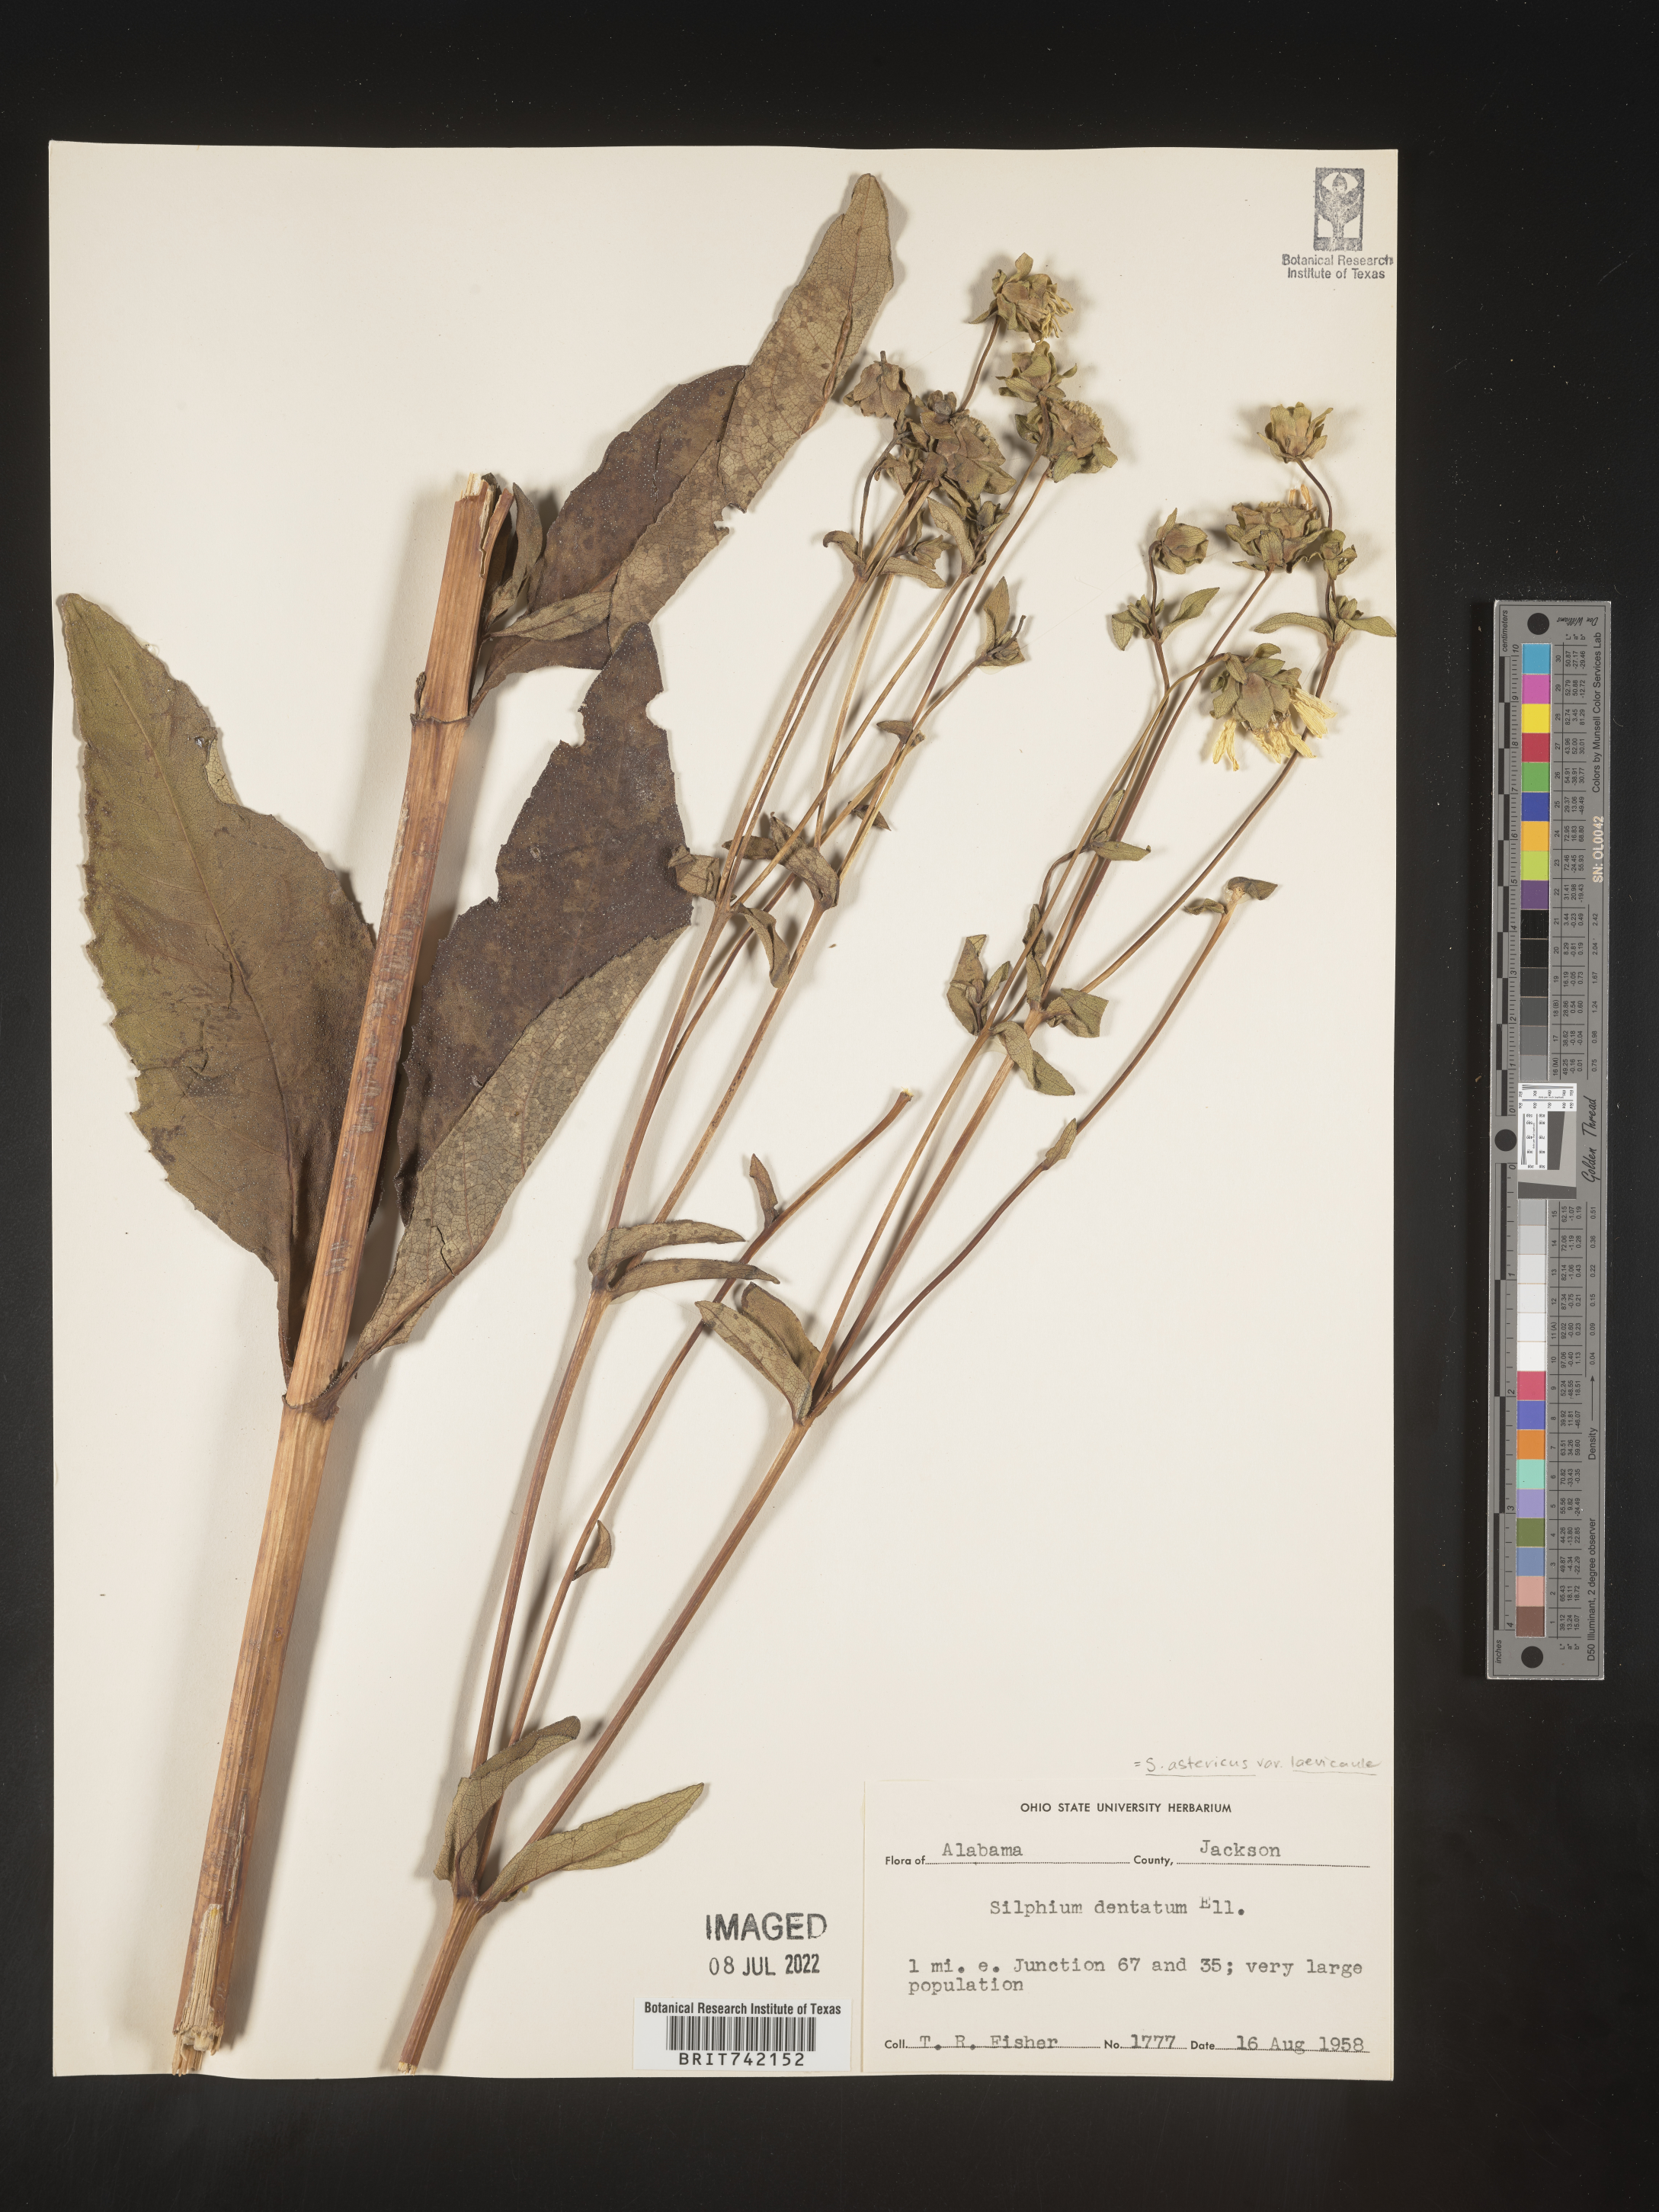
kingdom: Plantae
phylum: Tracheophyta
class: Magnoliopsida
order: Asterales
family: Asteraceae
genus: Silphium
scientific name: Silphium glabrum
